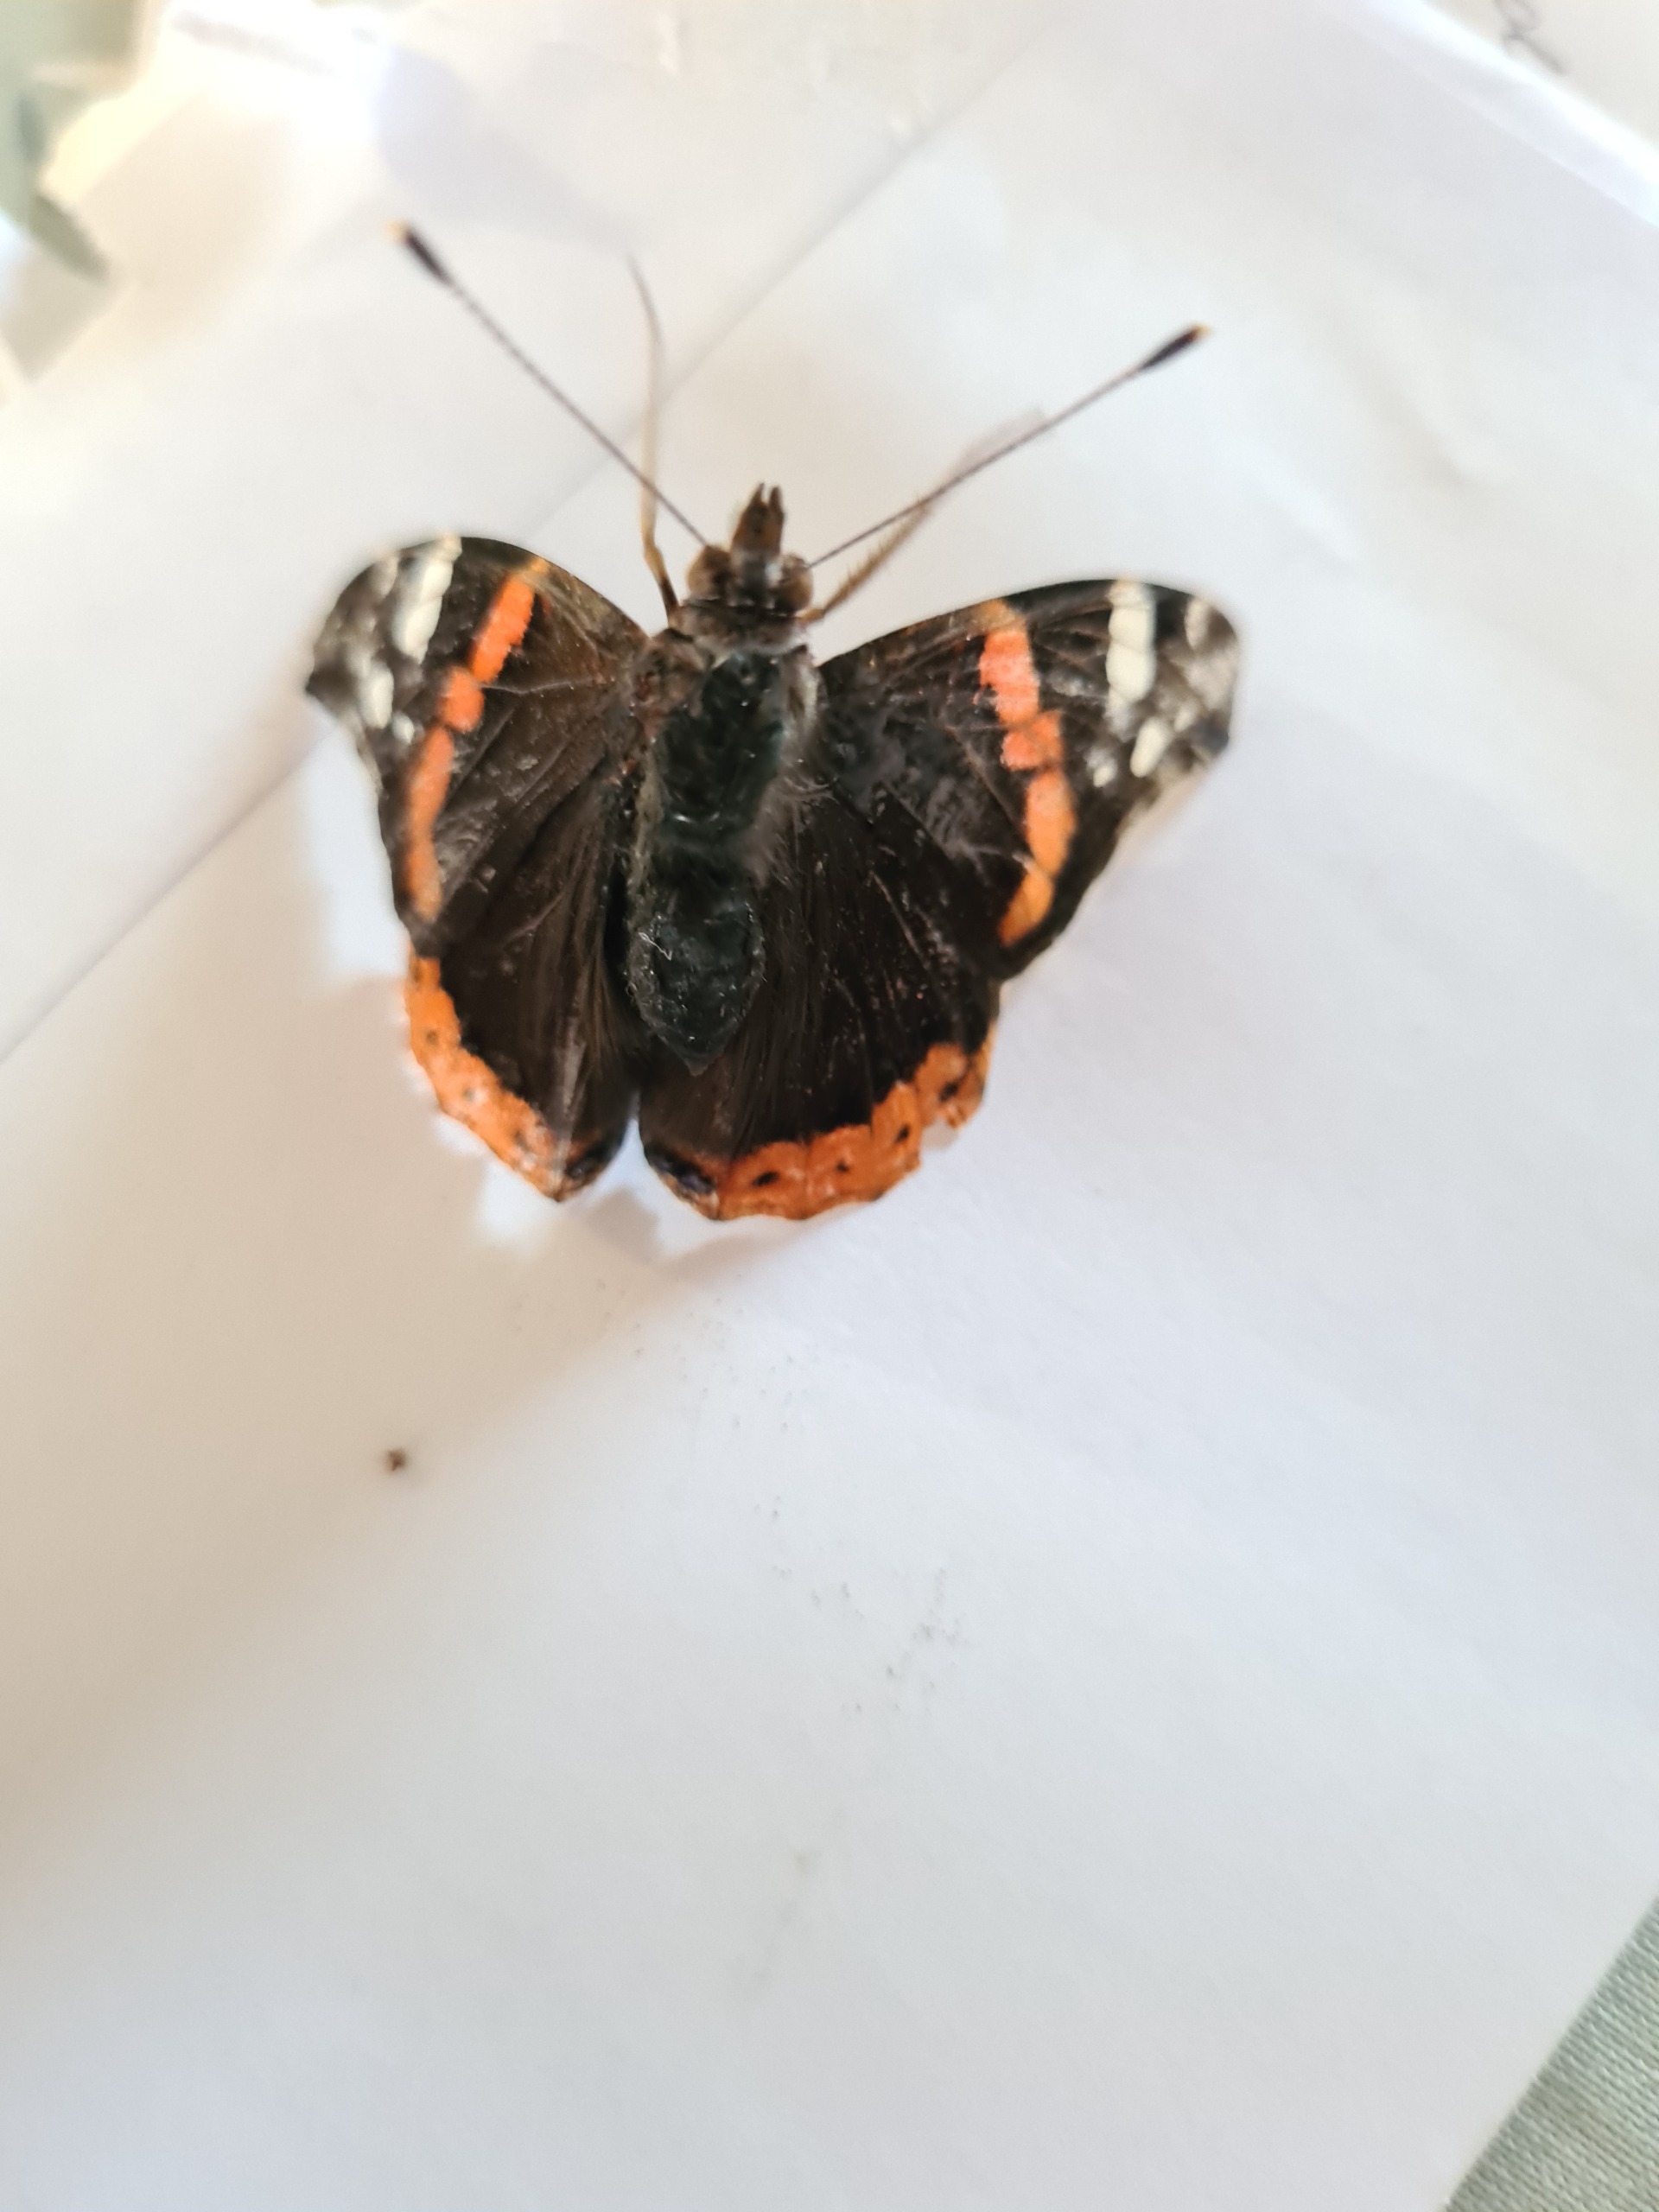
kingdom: Animalia
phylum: Arthropoda
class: Insecta
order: Lepidoptera
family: Nymphalidae
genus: Vanessa
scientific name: Vanessa atalanta
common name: Admiral
